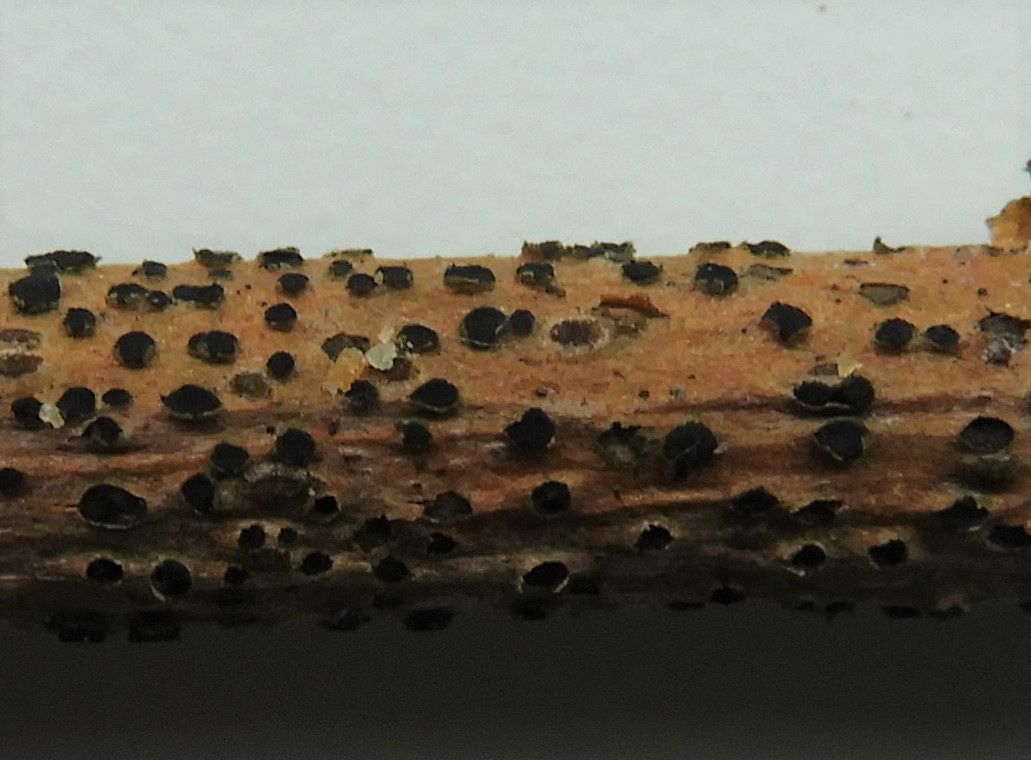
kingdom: Fungi
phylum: Ascomycota
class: Dothideomycetes
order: Dothideales
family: Dothideaceae
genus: Dothidea
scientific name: Dothidea sambuci
